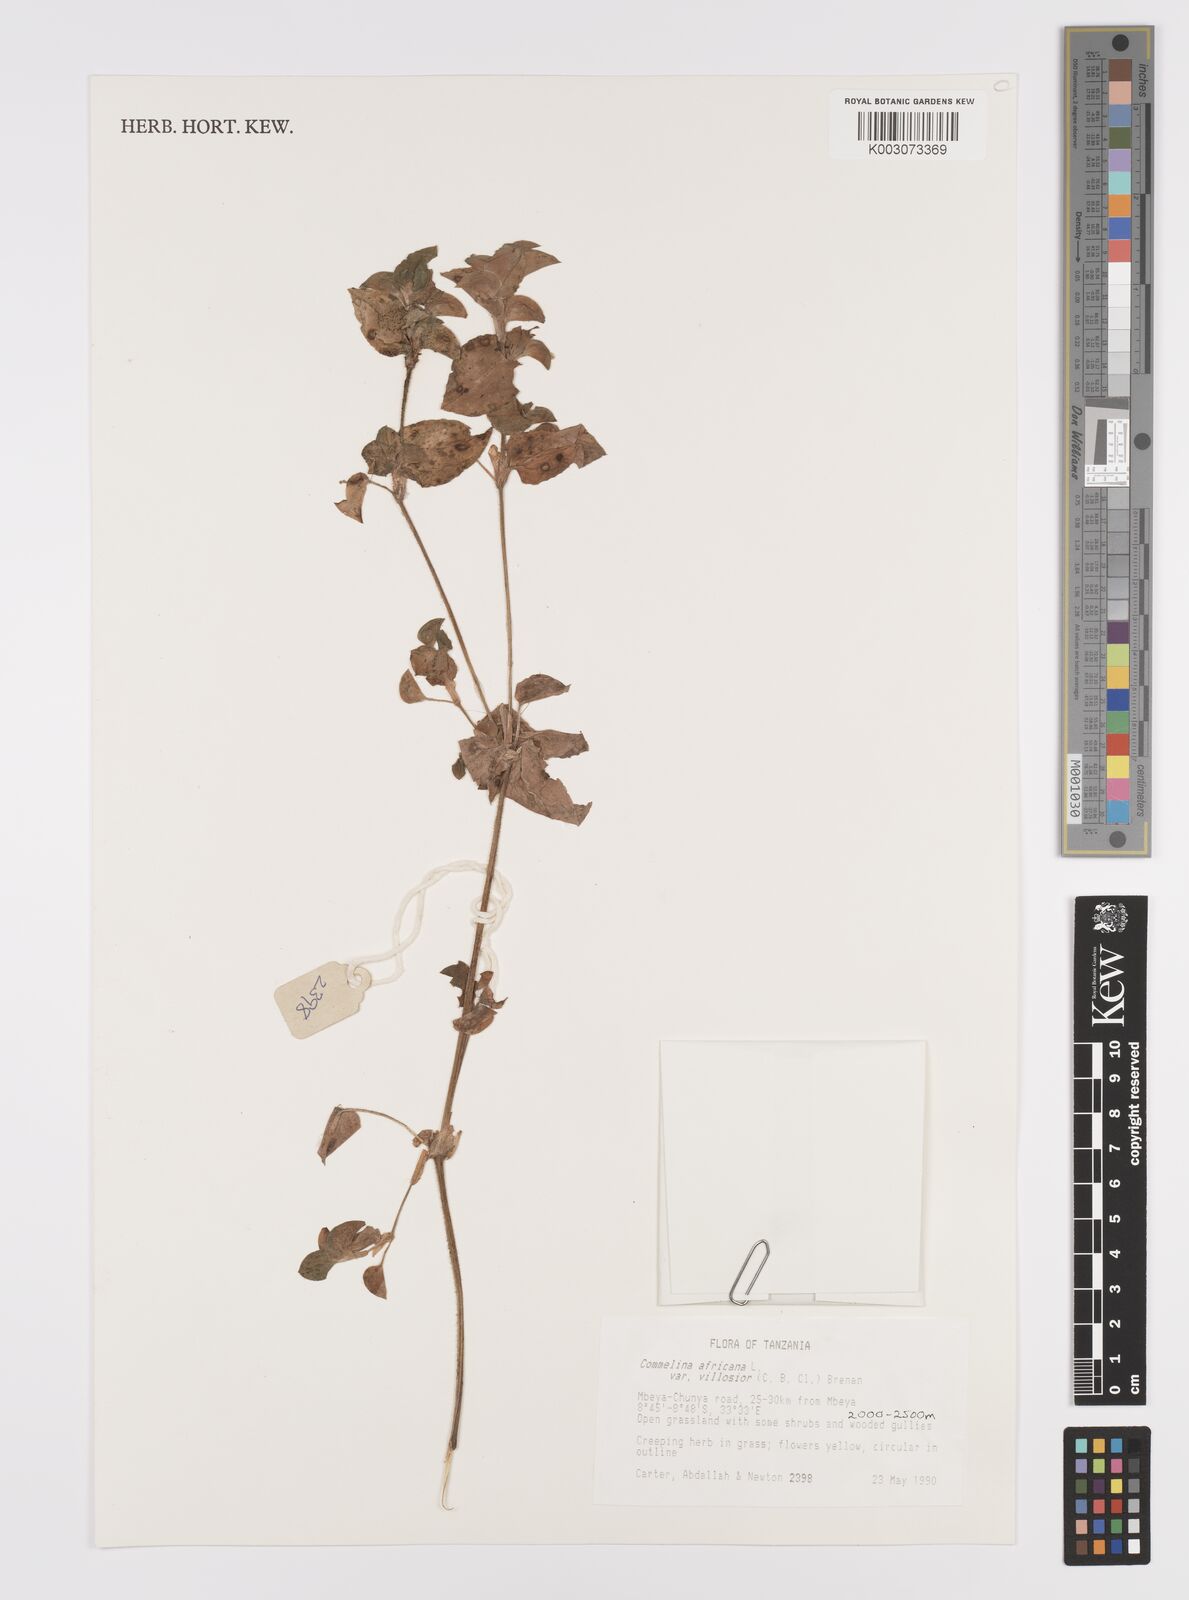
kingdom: Plantae
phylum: Tracheophyta
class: Liliopsida
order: Commelinales
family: Commelinaceae
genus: Commelina
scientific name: Commelina africana
